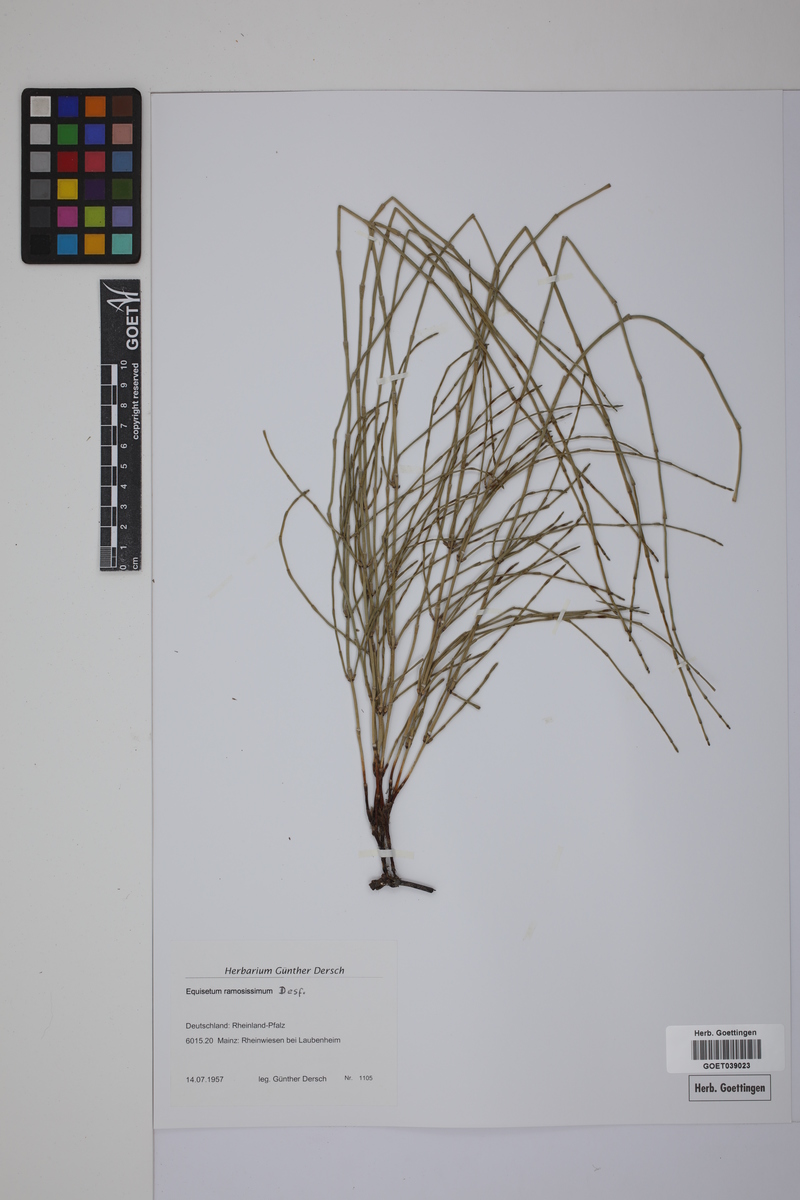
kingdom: Plantae
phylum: Tracheophyta
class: Polypodiopsida
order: Equisetales
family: Equisetaceae
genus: Equisetum
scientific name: Equisetum giganteum
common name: Giant horsetail
